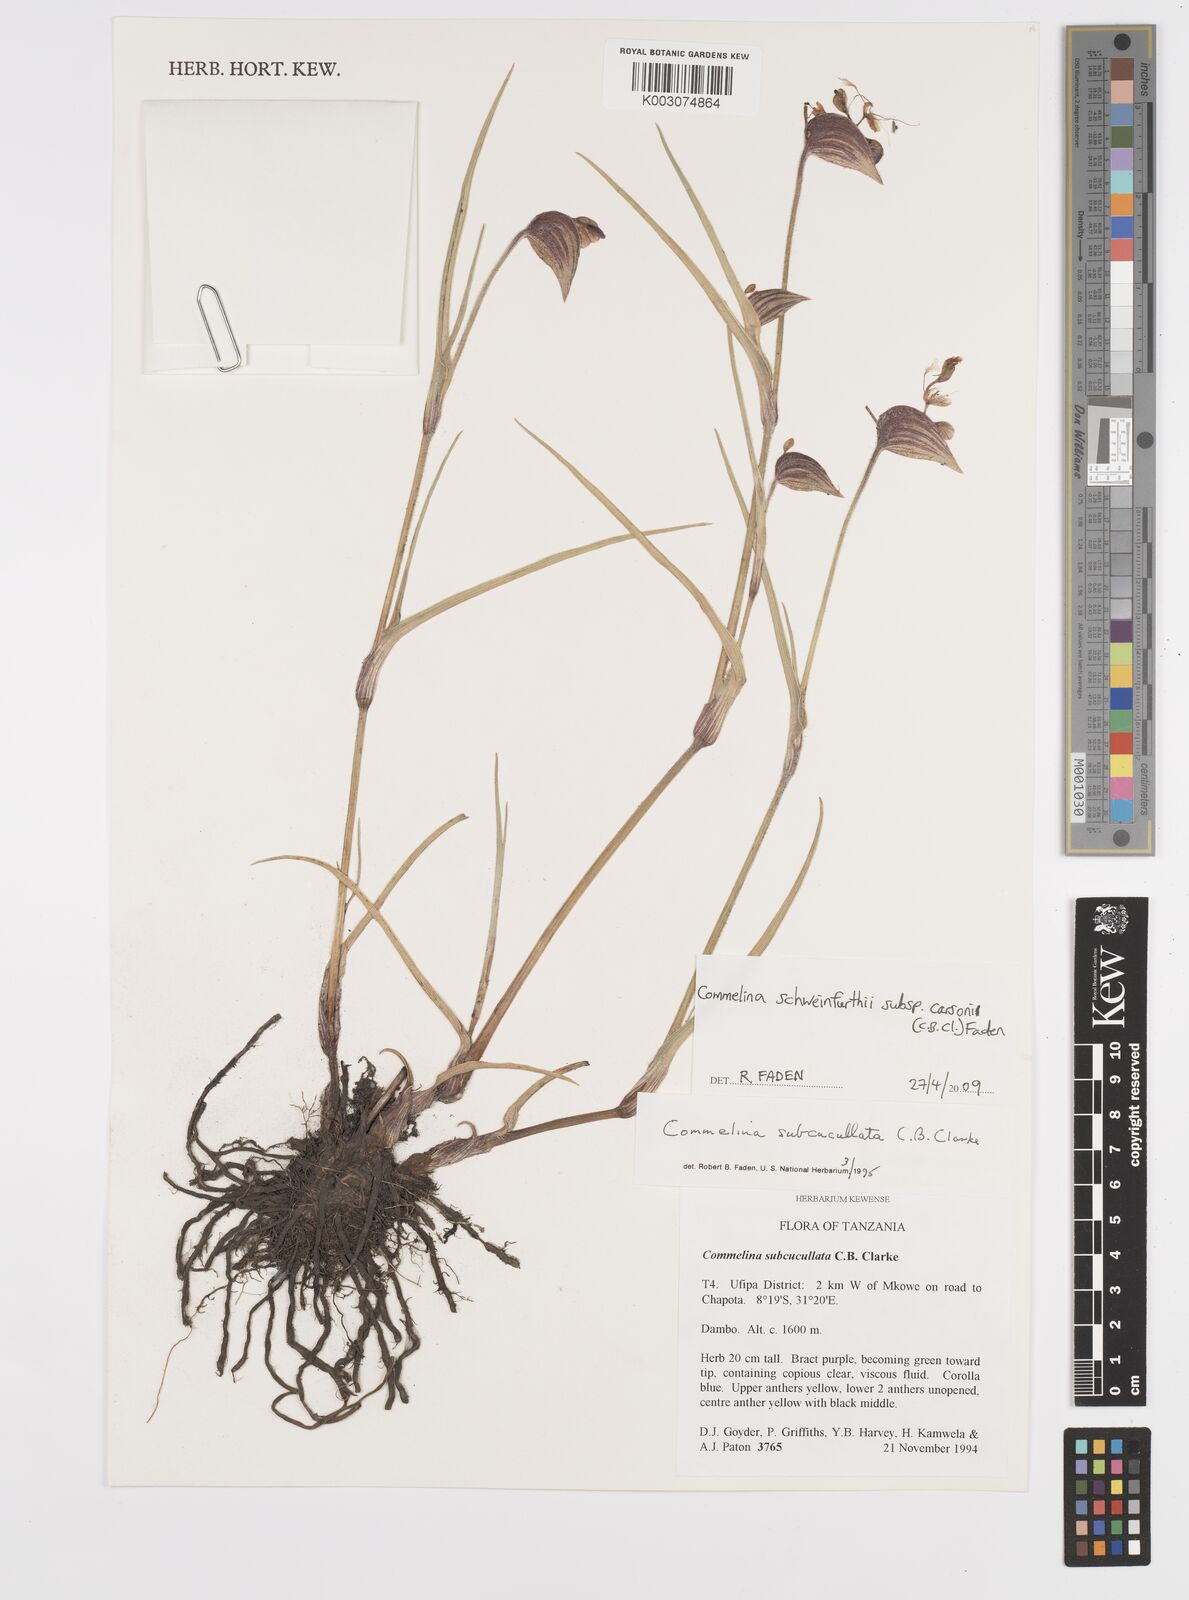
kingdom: Plantae
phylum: Tracheophyta
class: Liliopsida
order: Commelinales
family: Commelinaceae
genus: Commelina
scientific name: Commelina schweinfurthii
